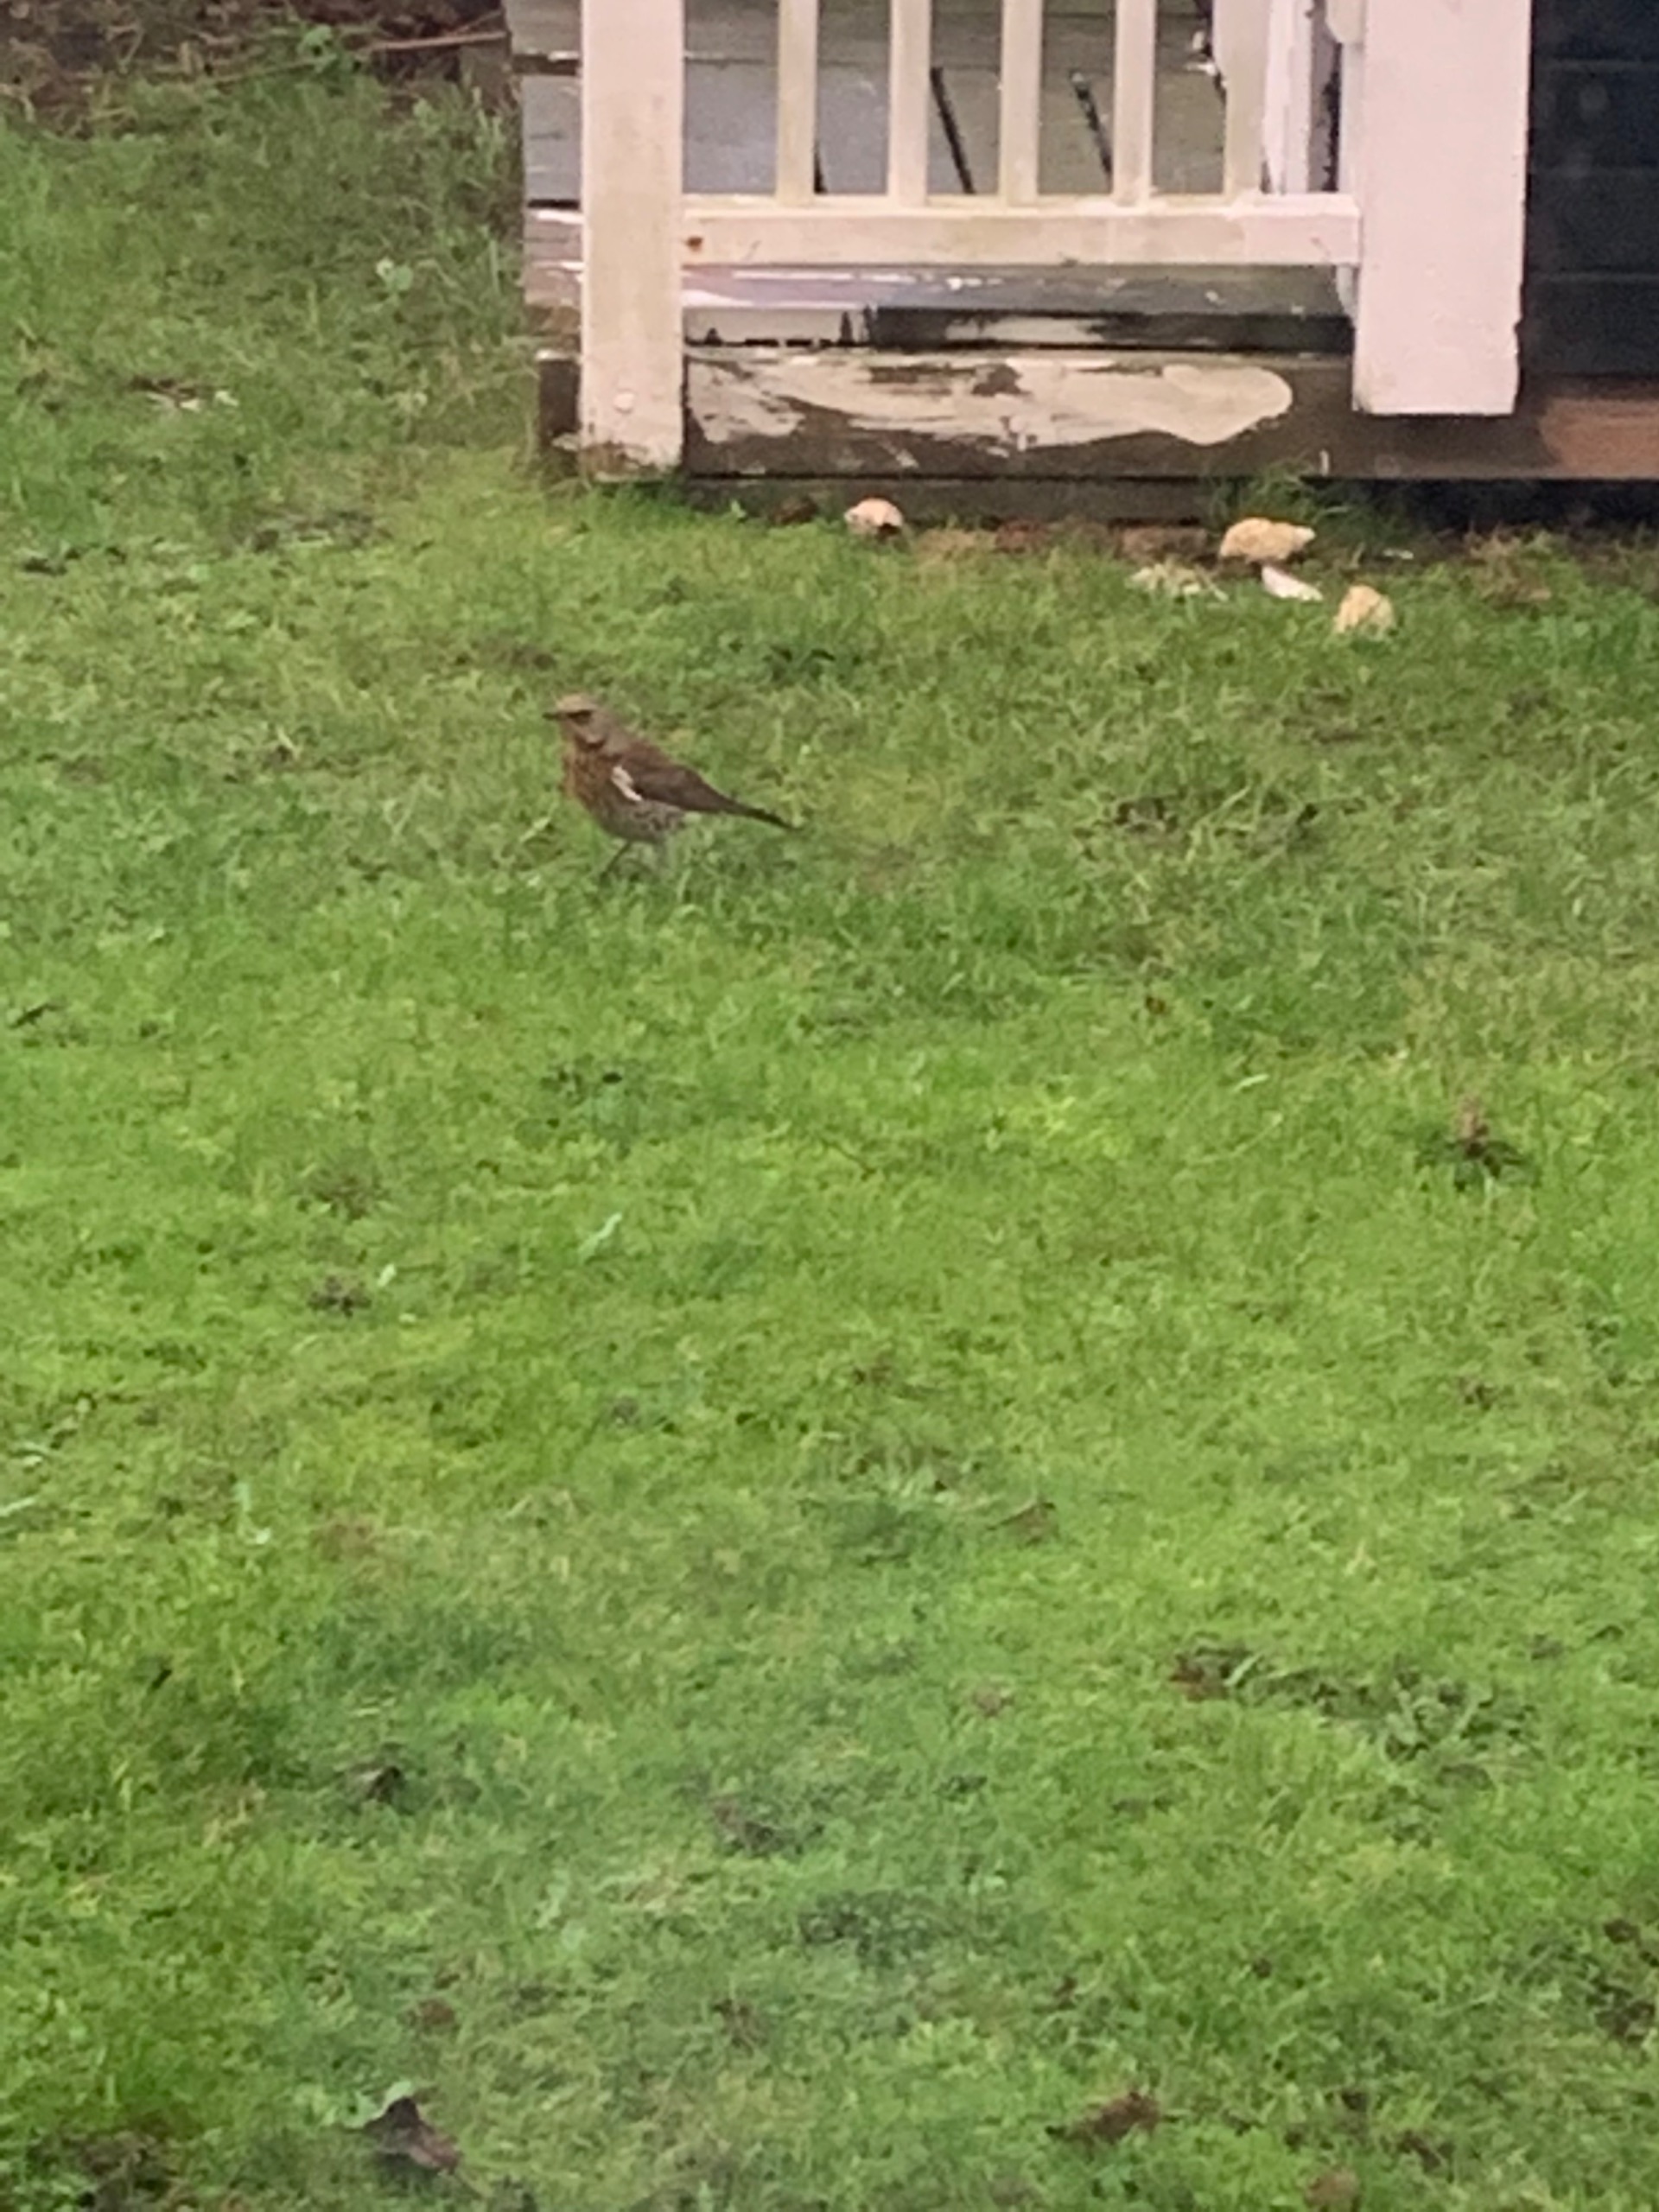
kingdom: Animalia
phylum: Chordata
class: Aves
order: Passeriformes
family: Turdidae
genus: Turdus
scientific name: Turdus pilaris
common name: Sjagger
